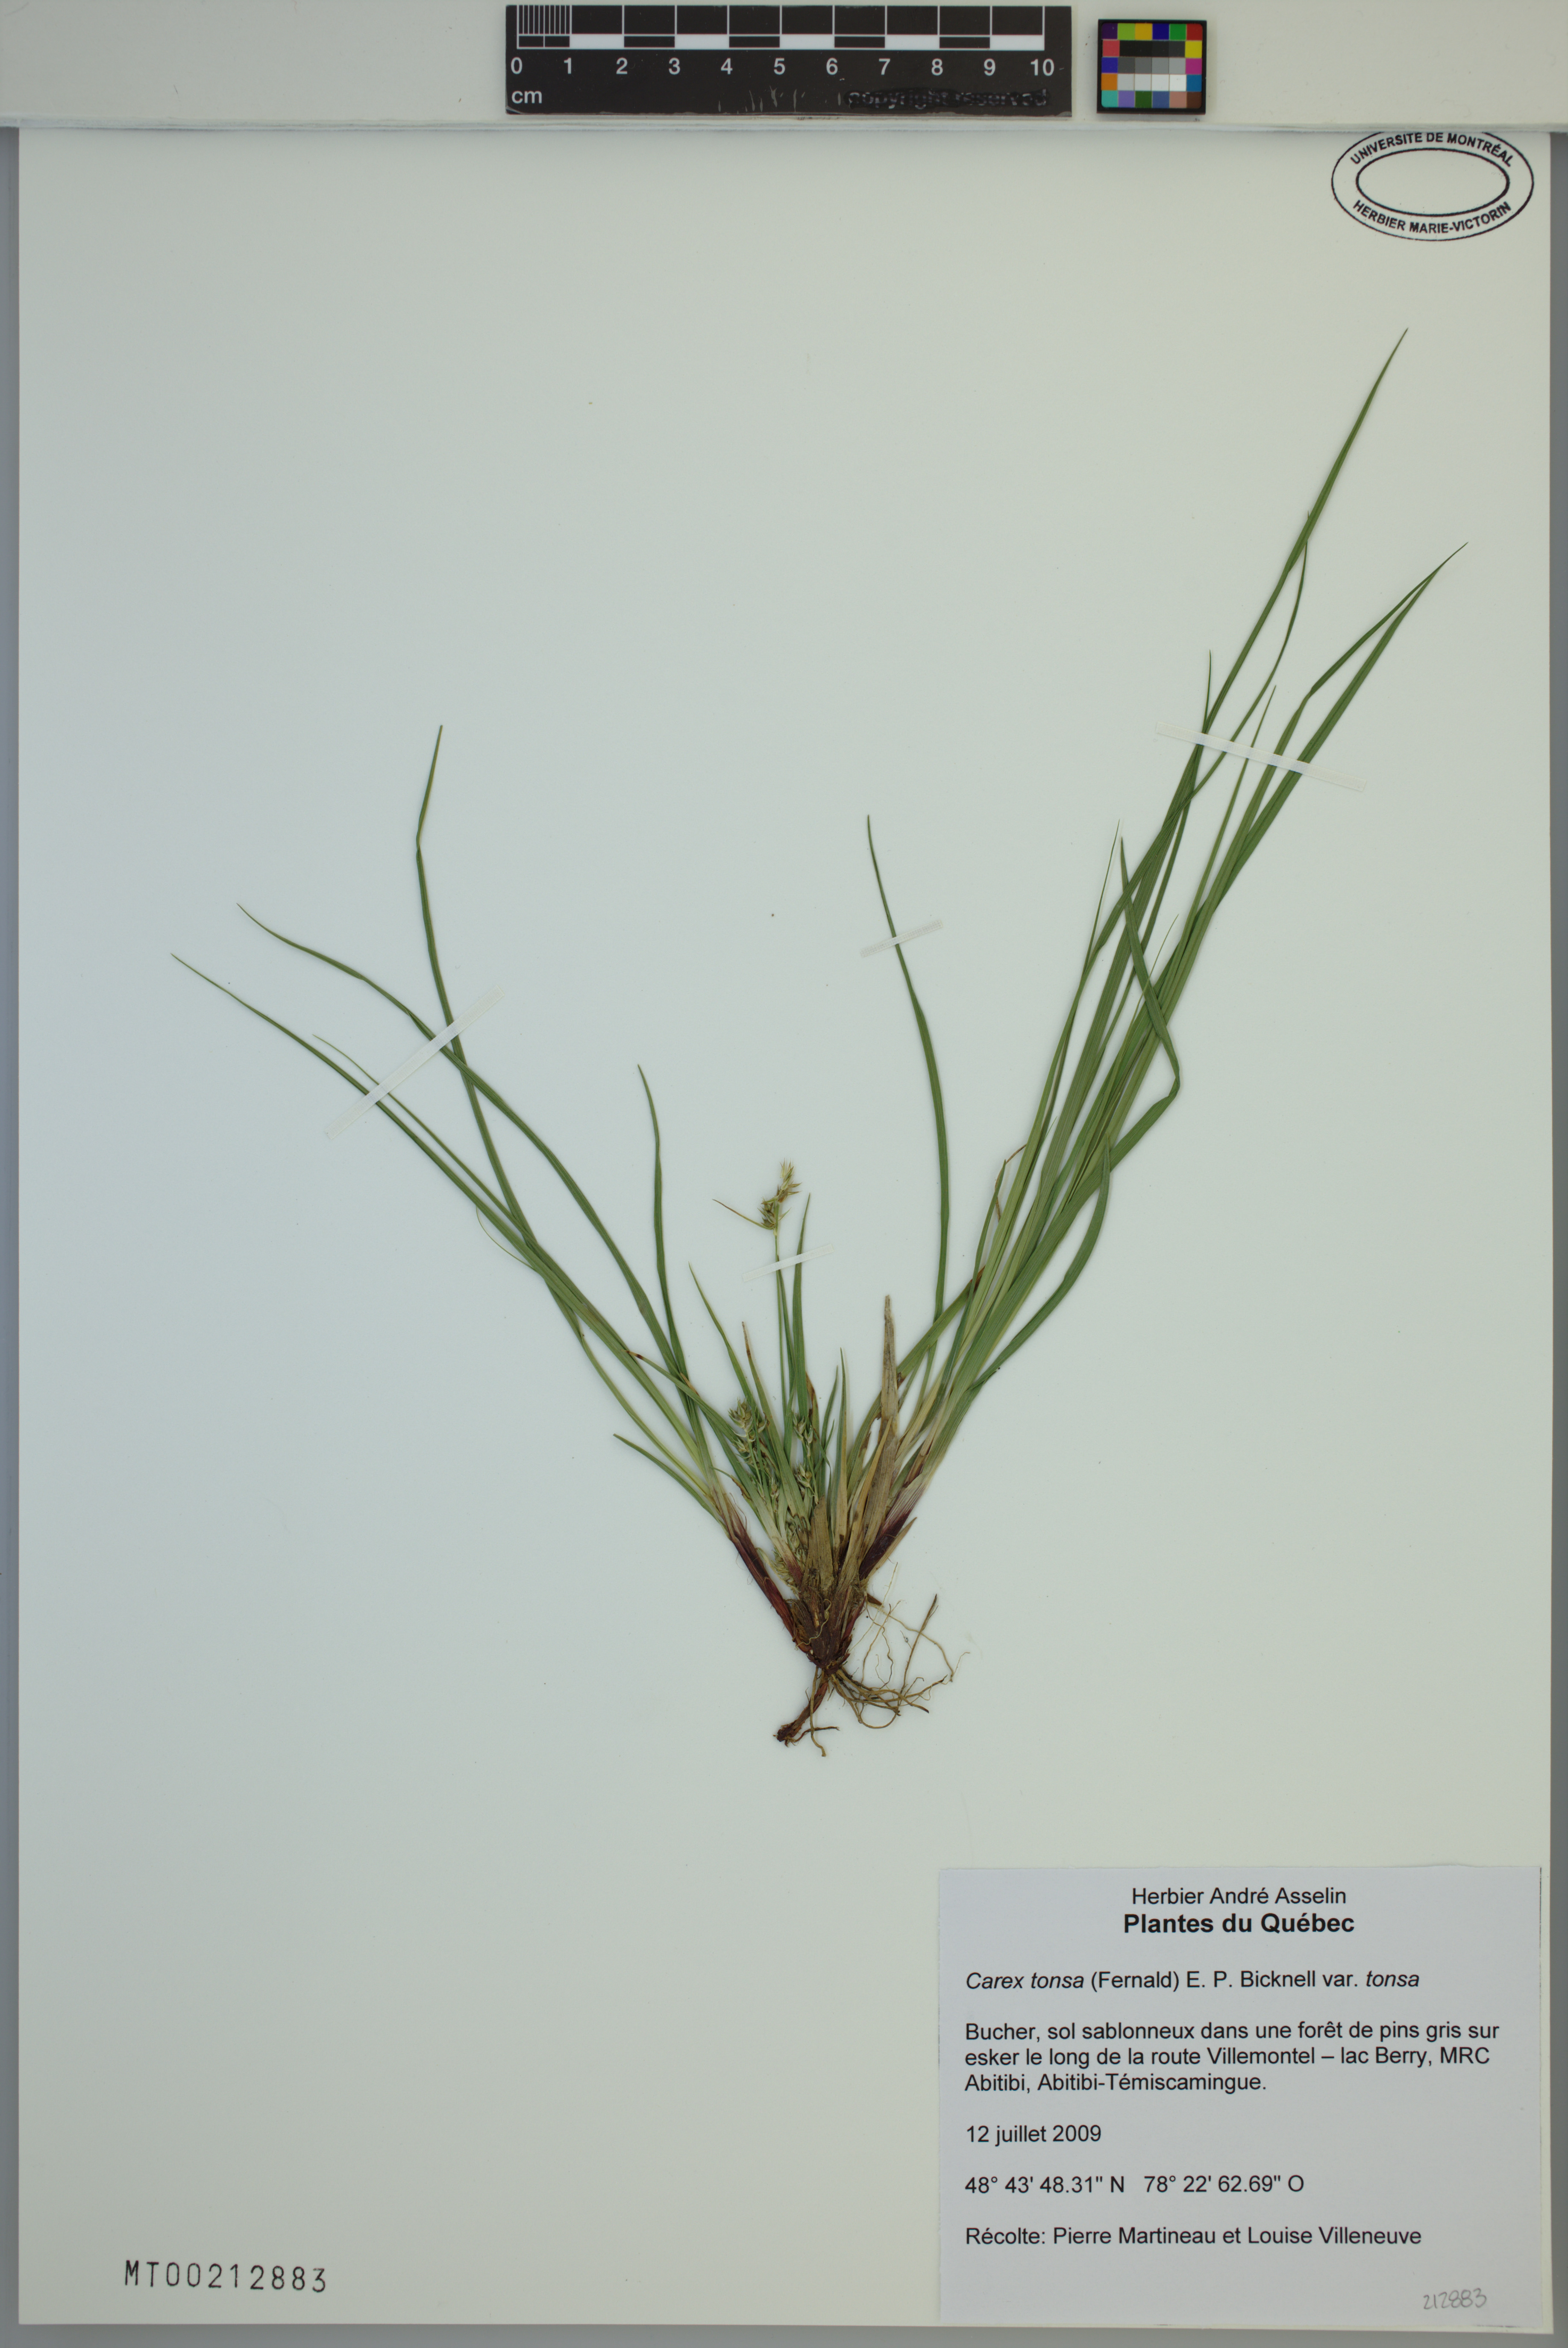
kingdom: Plantae
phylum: Tracheophyta
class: Liliopsida
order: Poales
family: Cyperaceae
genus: Carex
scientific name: Carex tonsa
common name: Bald sedge
